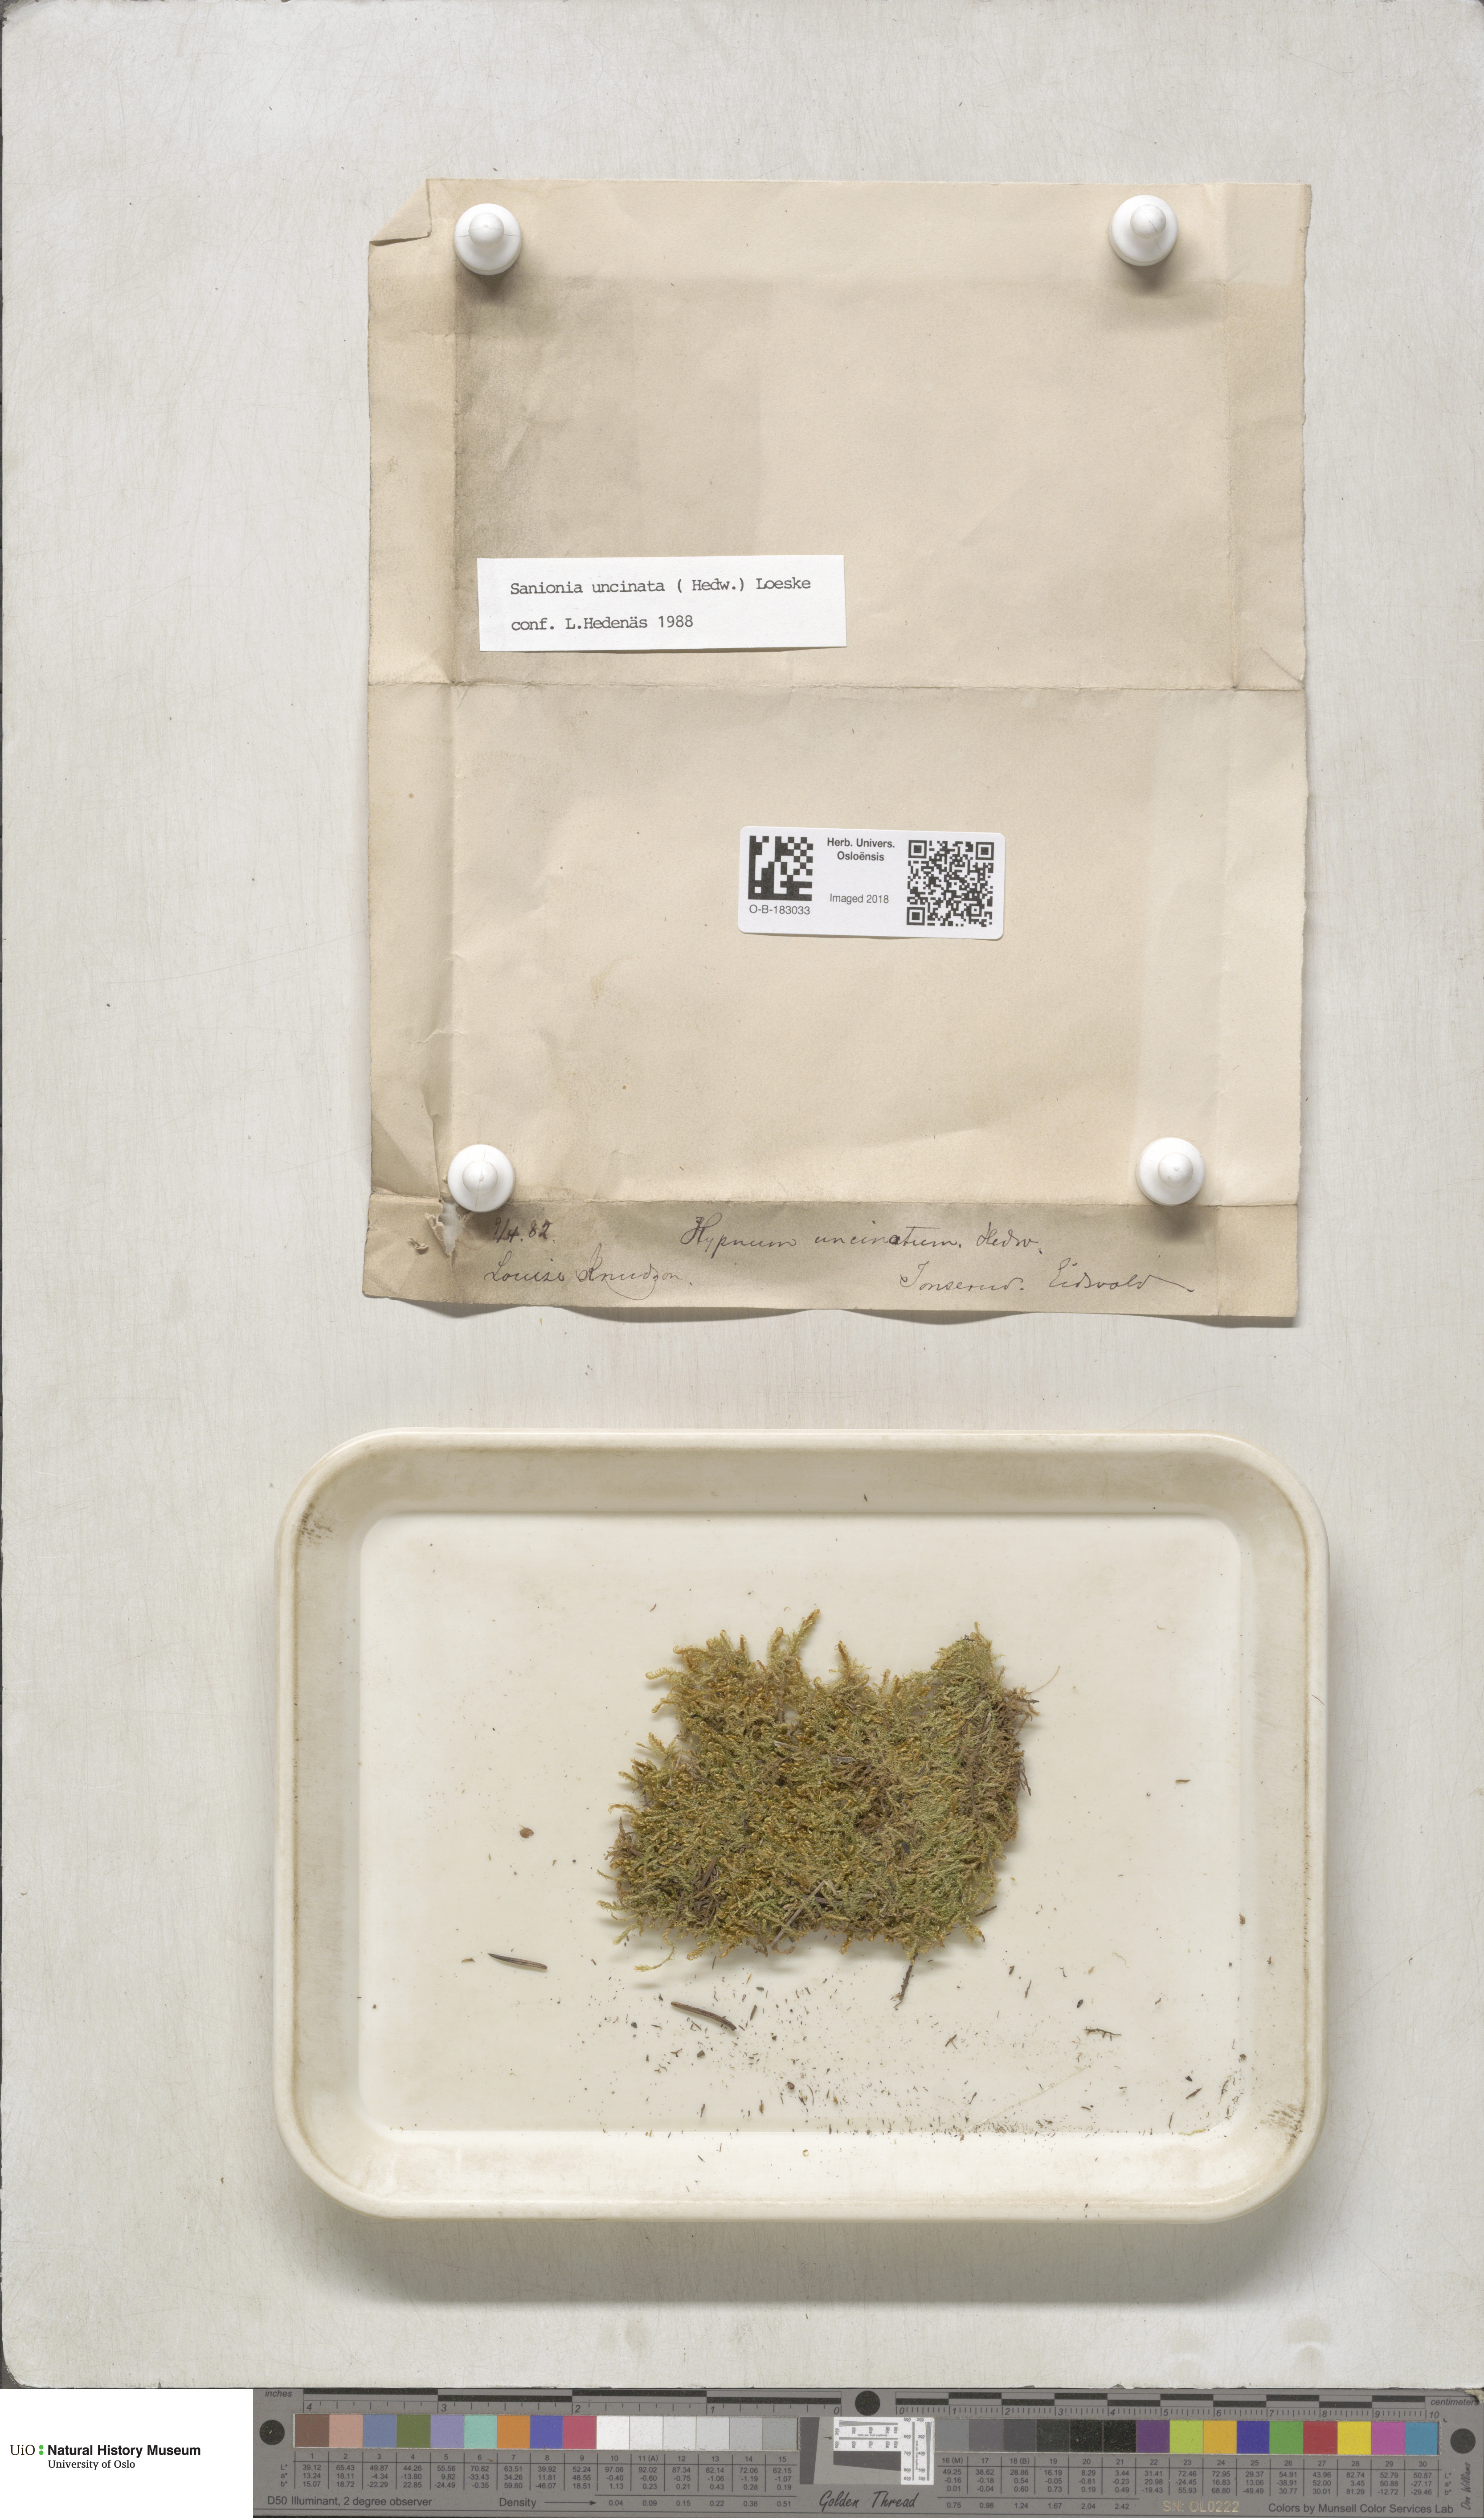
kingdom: Plantae
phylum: Bryophyta
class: Bryopsida
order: Hypnales
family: Scorpidiaceae
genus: Sanionia
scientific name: Sanionia uncinata
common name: Sickle moss
